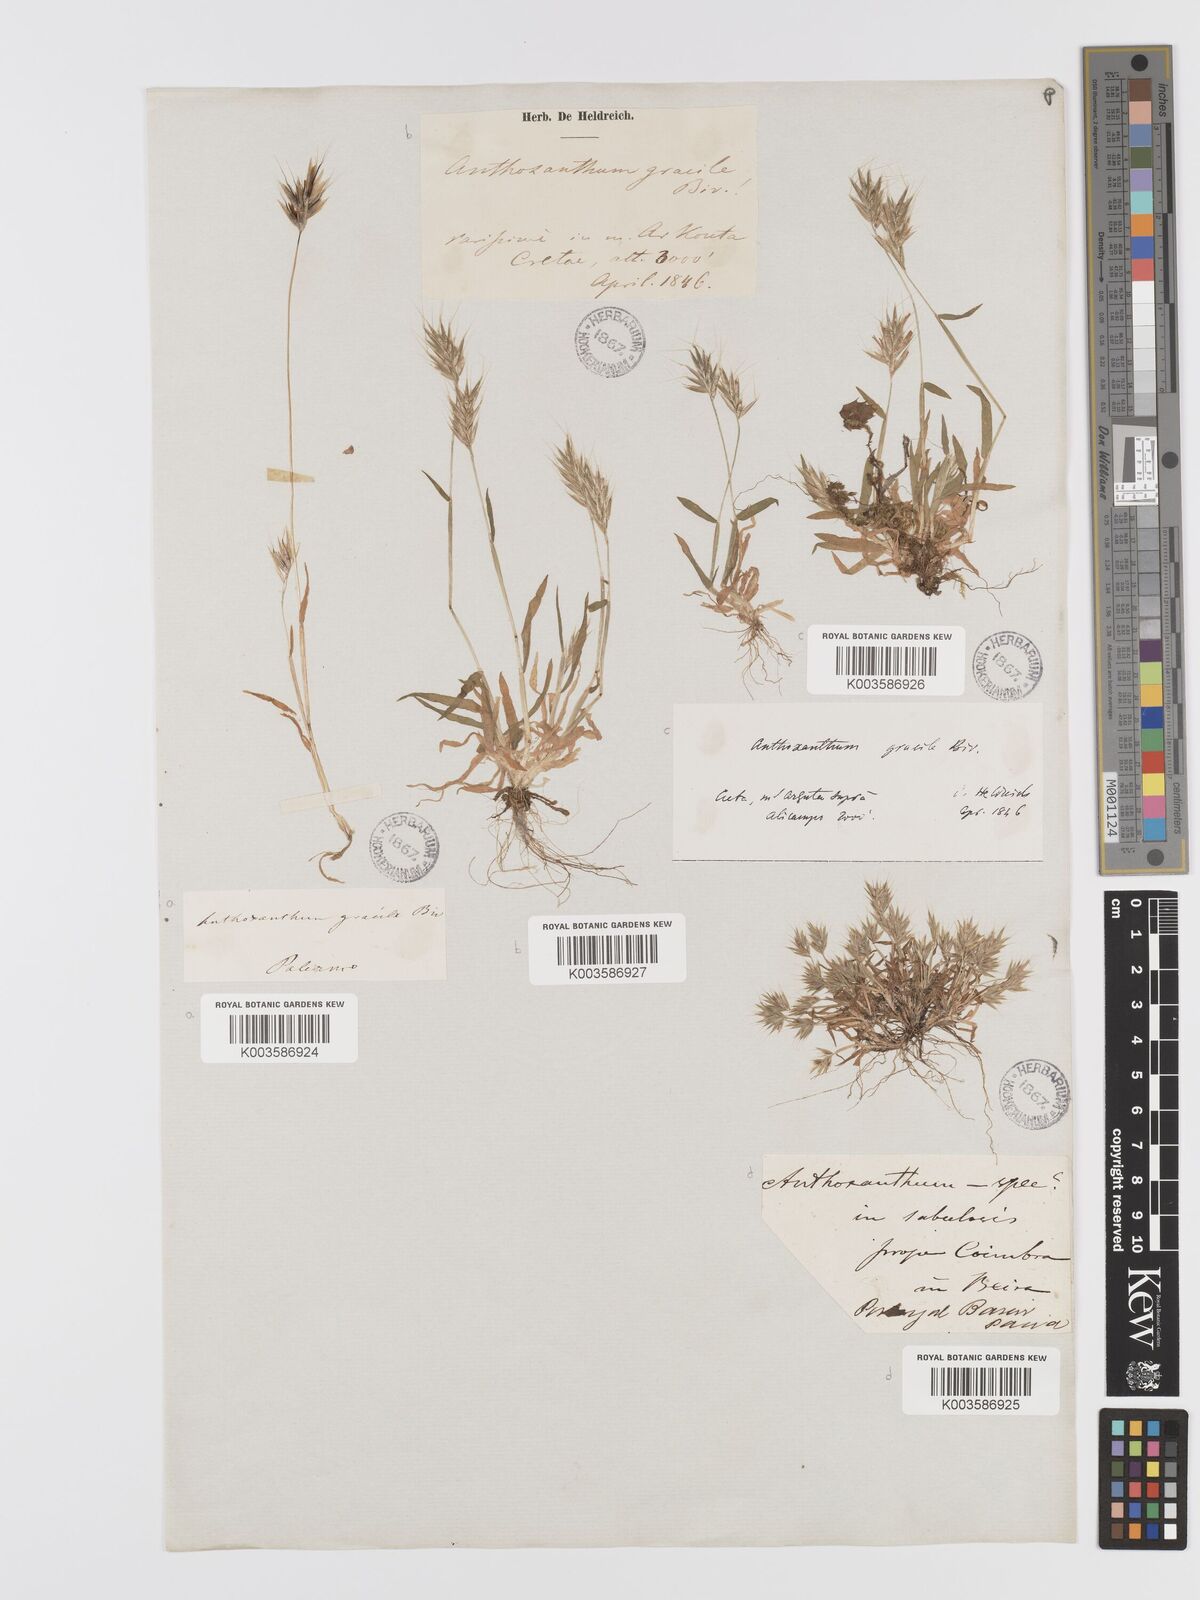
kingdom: Plantae
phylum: Tracheophyta
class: Liliopsida
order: Poales
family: Poaceae
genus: Anthoxanthum
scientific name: Anthoxanthum gracile
